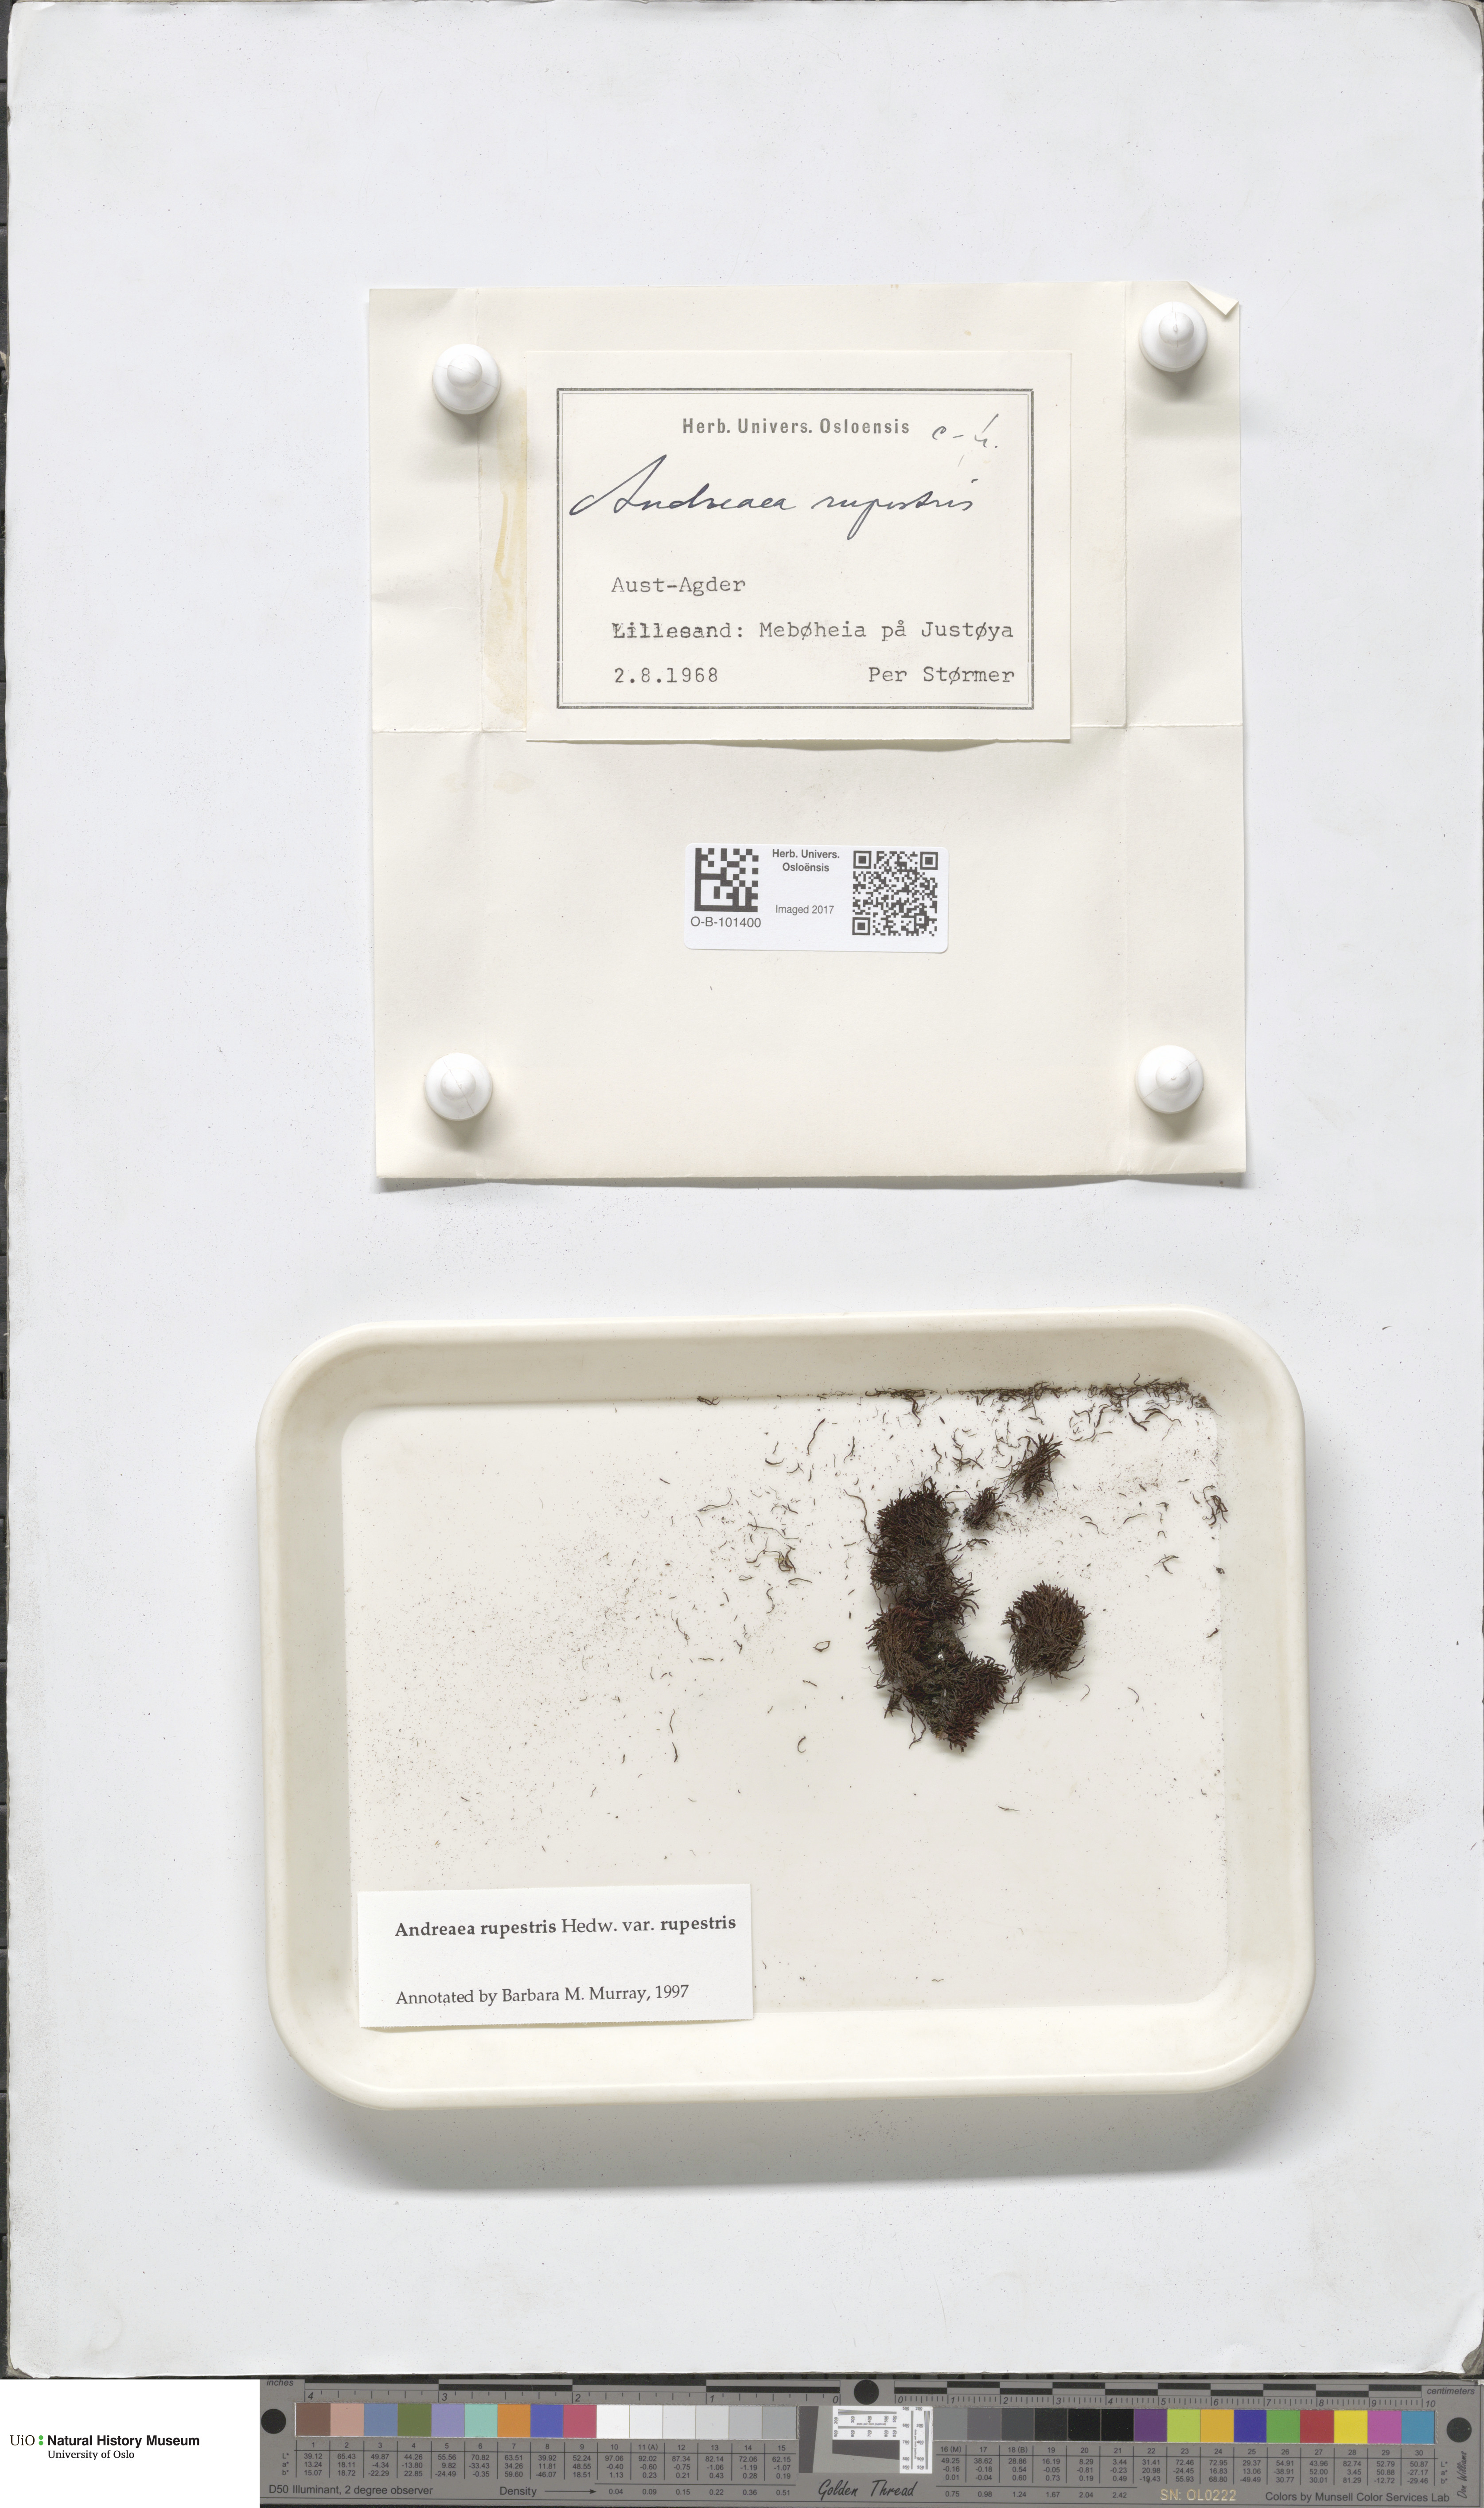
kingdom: Plantae
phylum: Bryophyta
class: Andreaeopsida
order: Andreaeales
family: Andreaeaceae
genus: Andreaea
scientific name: Andreaea rupestris
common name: Black rock moss
